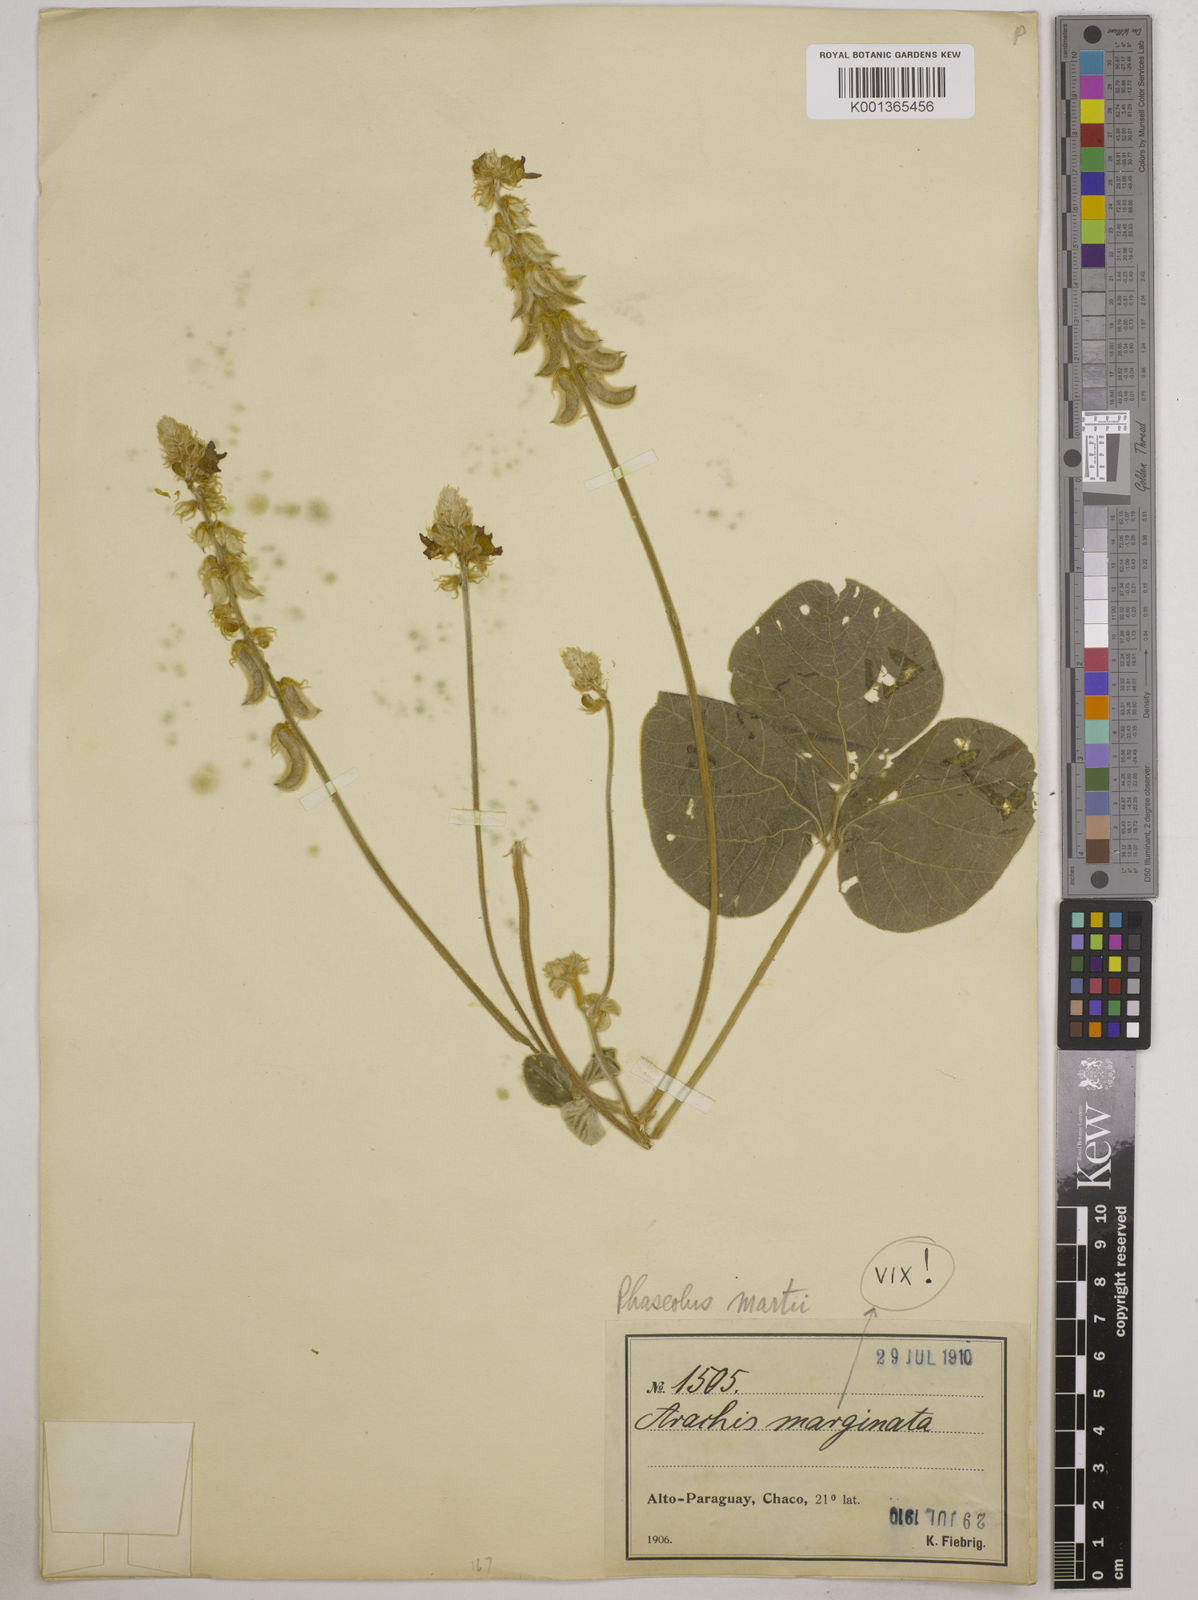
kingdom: Plantae
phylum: Tracheophyta
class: Magnoliopsida
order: Fabales
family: Fabaceae
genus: Macroptilium
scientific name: Macroptilium martii
